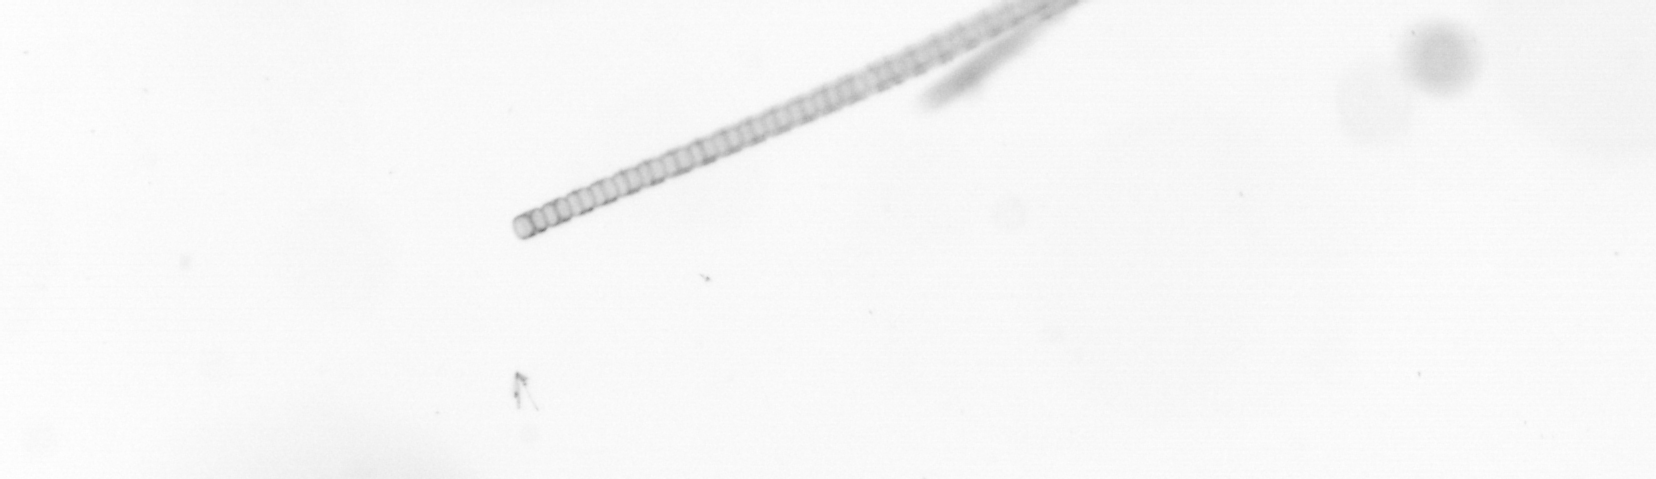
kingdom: Chromista
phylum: Ochrophyta
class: Bacillariophyceae
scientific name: Bacillariophyceae
